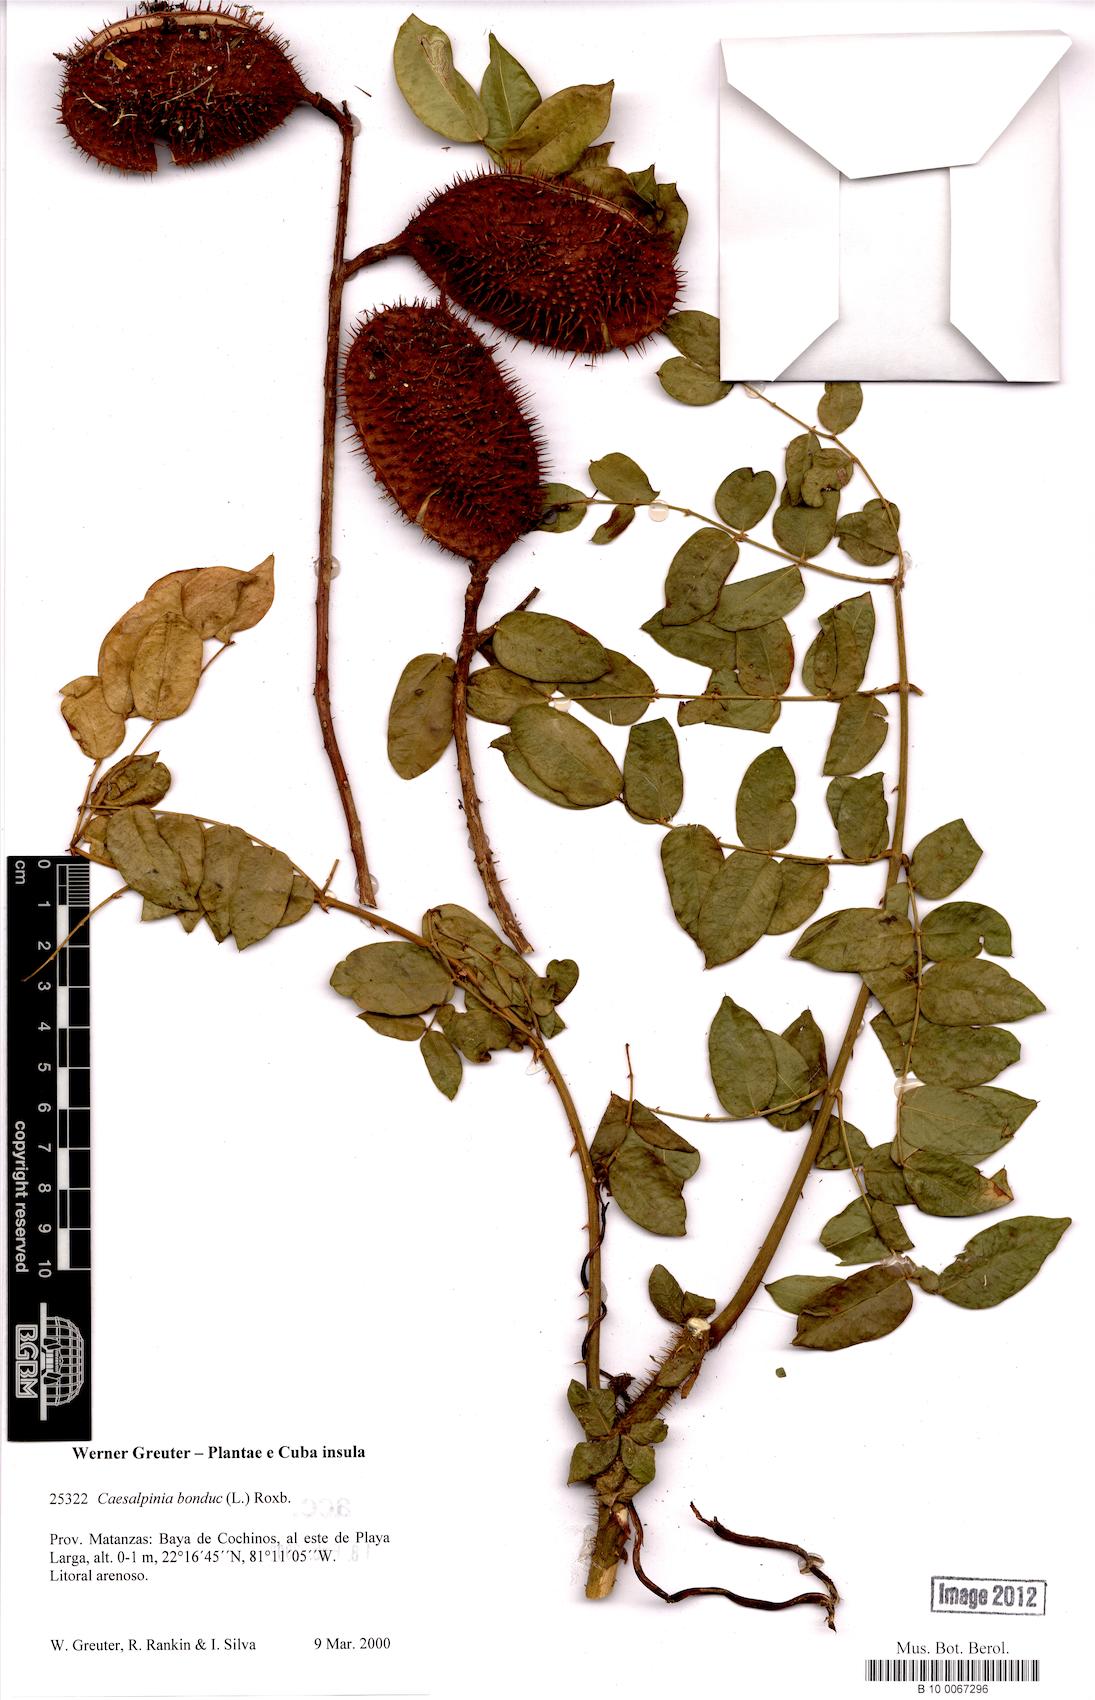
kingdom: Plantae
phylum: Tracheophyta
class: Magnoliopsida
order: Fabales
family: Fabaceae
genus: Guilandina
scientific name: Guilandina bonduc
